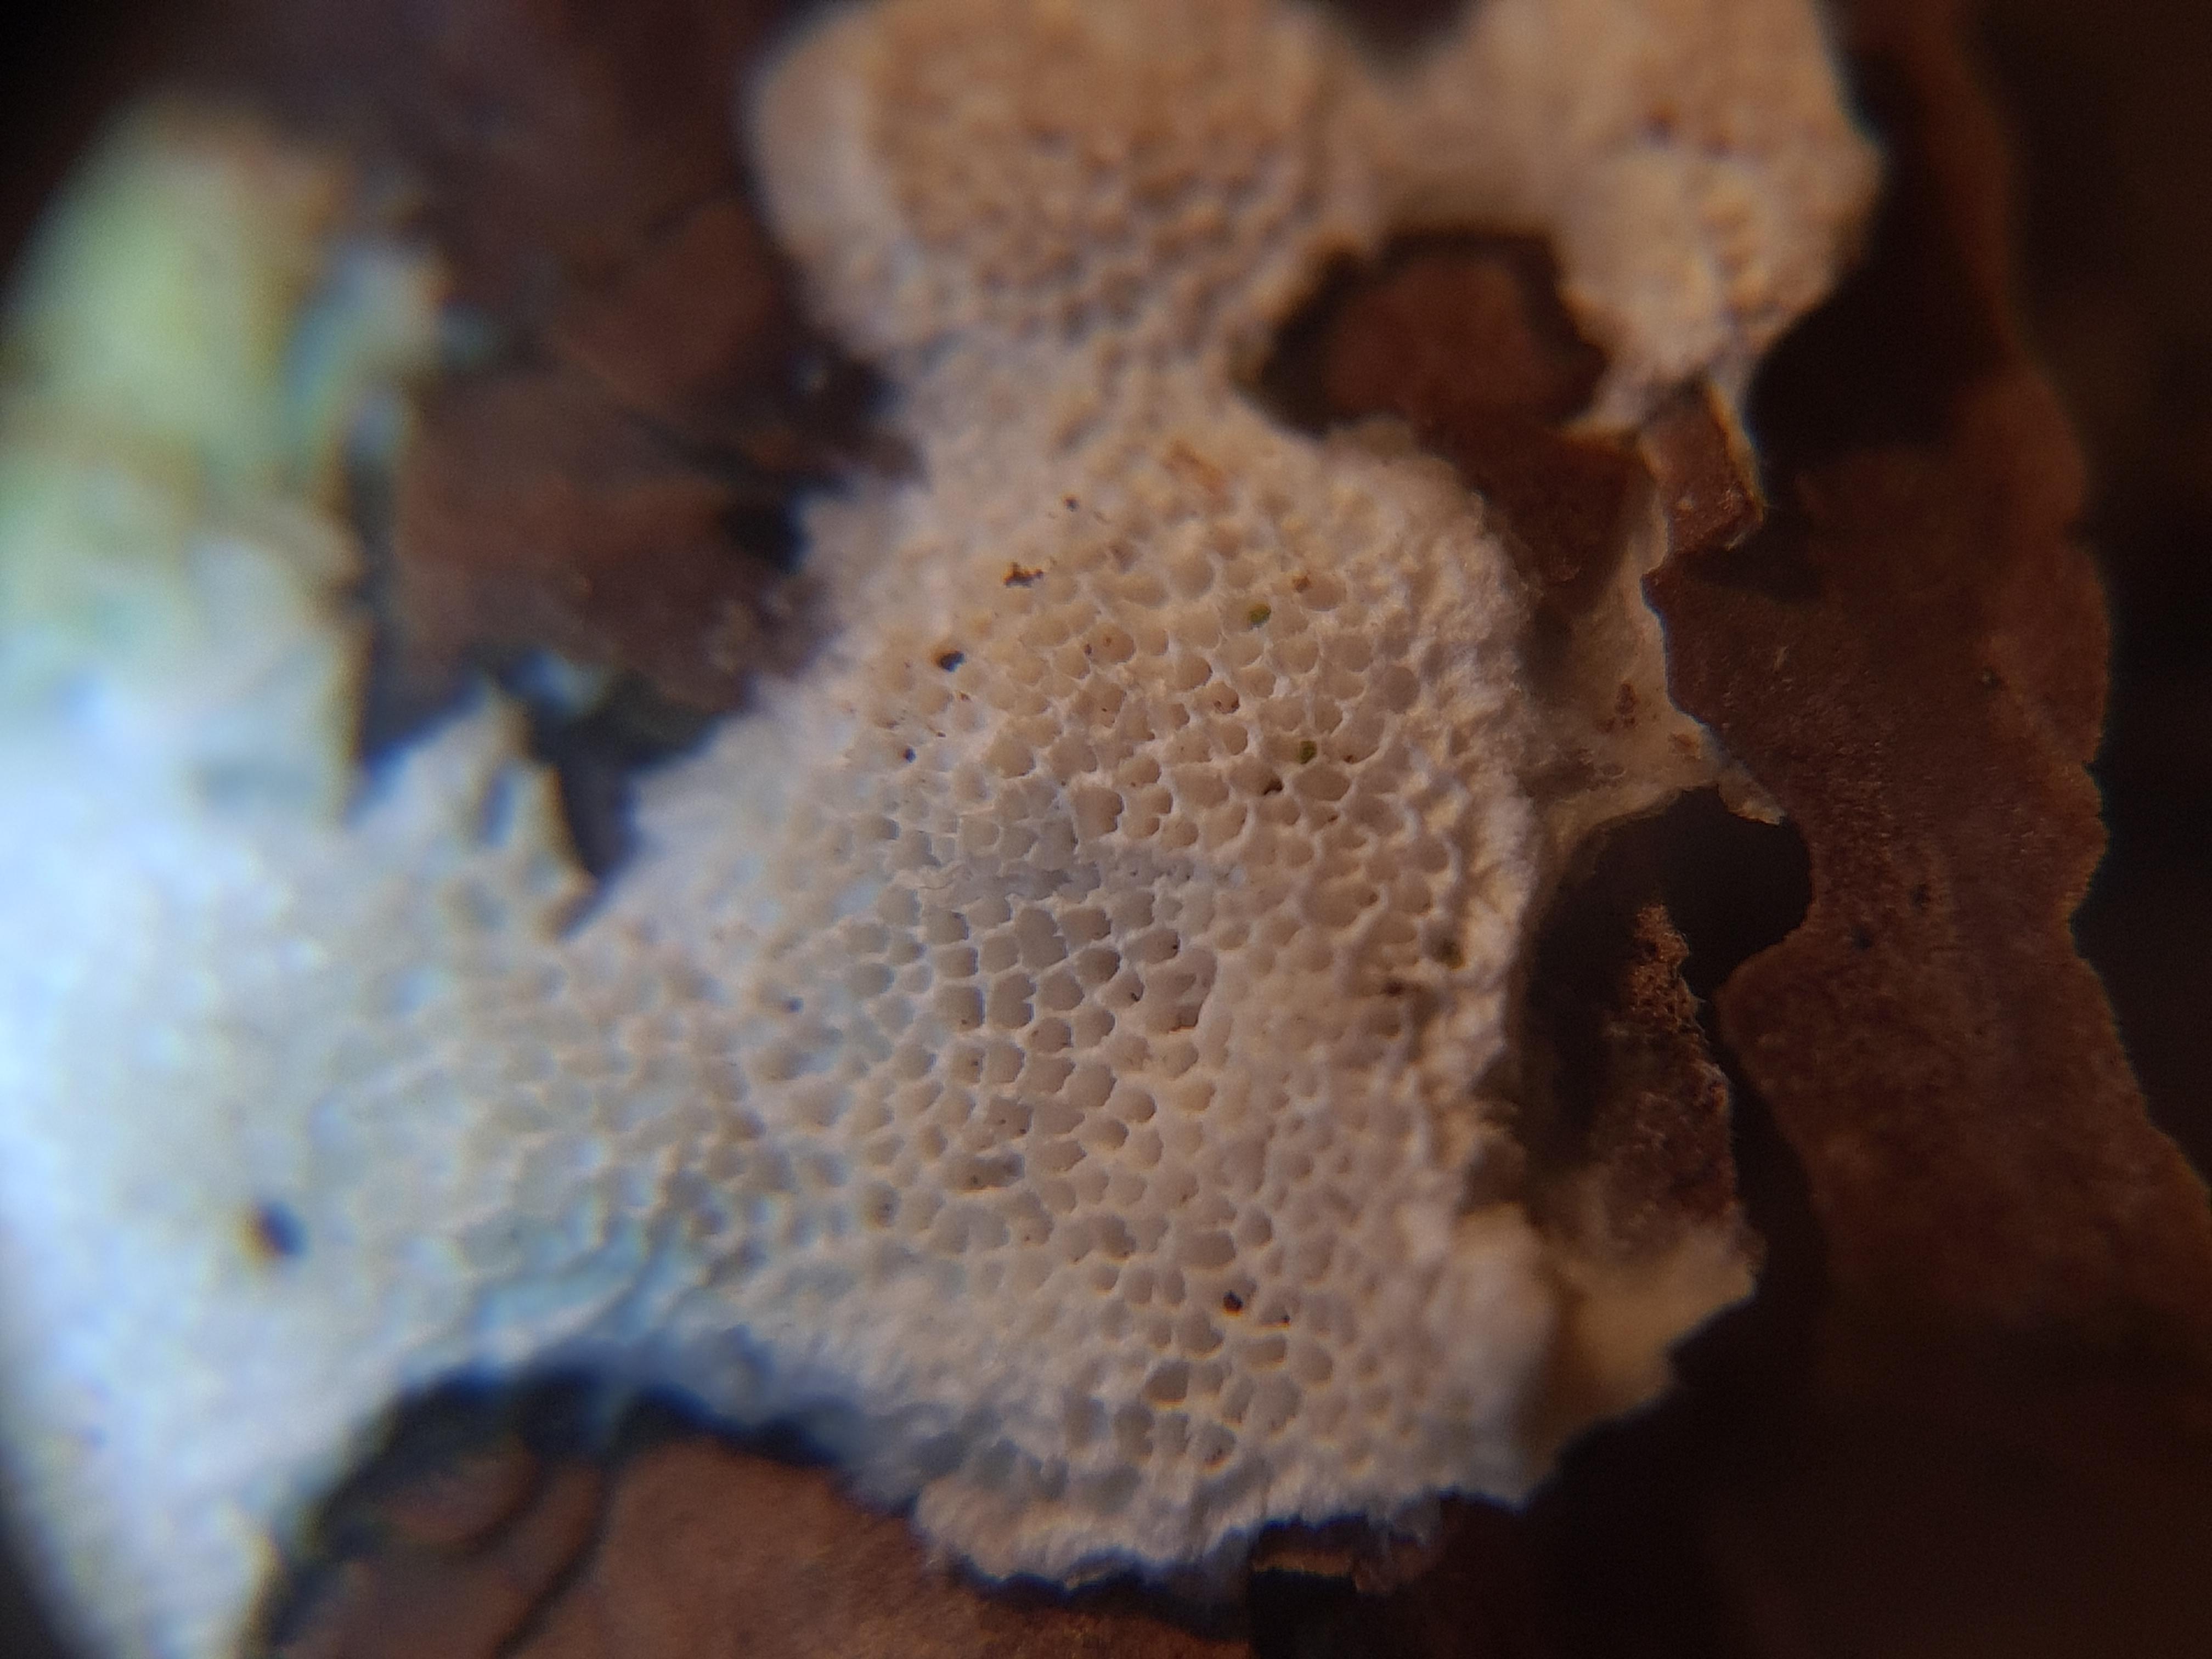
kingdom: Fungi
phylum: Basidiomycota
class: Agaricomycetes
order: Polyporales
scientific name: Polyporales
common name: poresvampordenen
